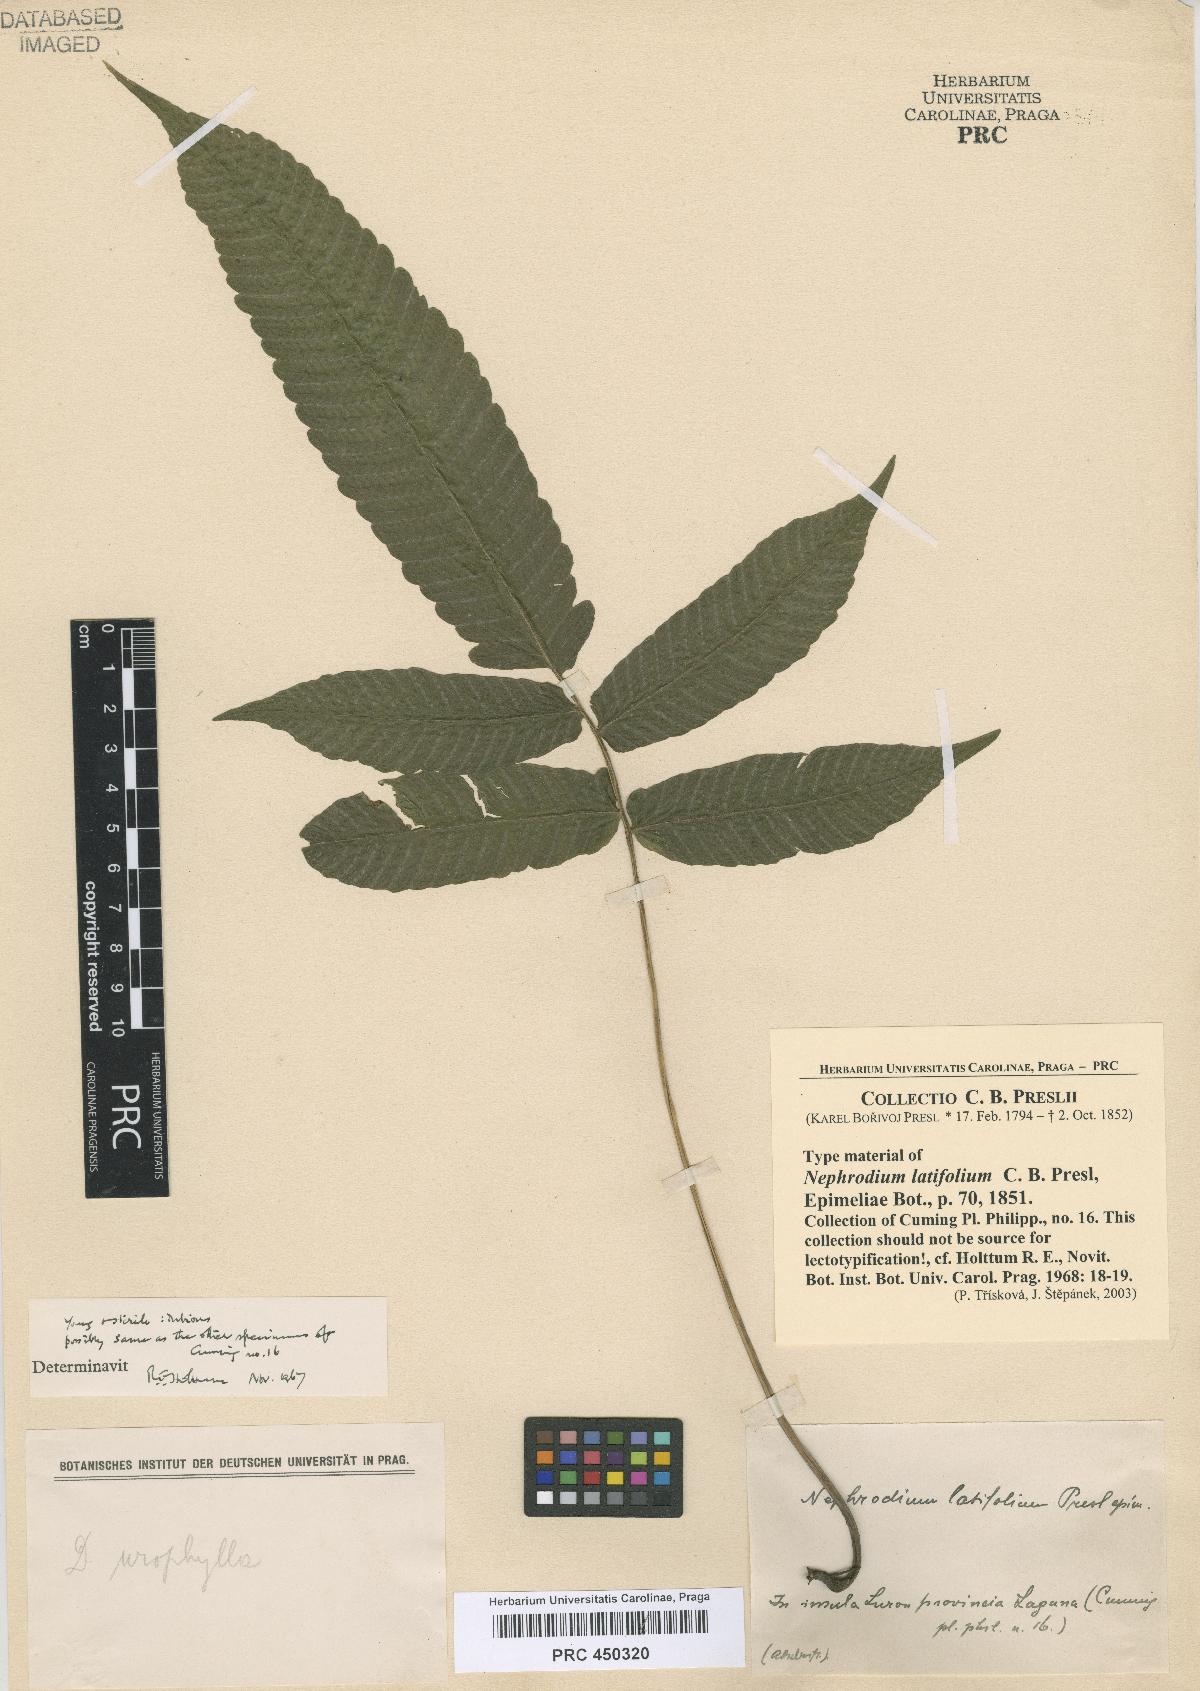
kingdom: Plantae
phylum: Tracheophyta
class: Polypodiopsida
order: Polypodiales
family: Thelypteridaceae
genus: Pronephrium
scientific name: Pronephrium menisciicarpon
